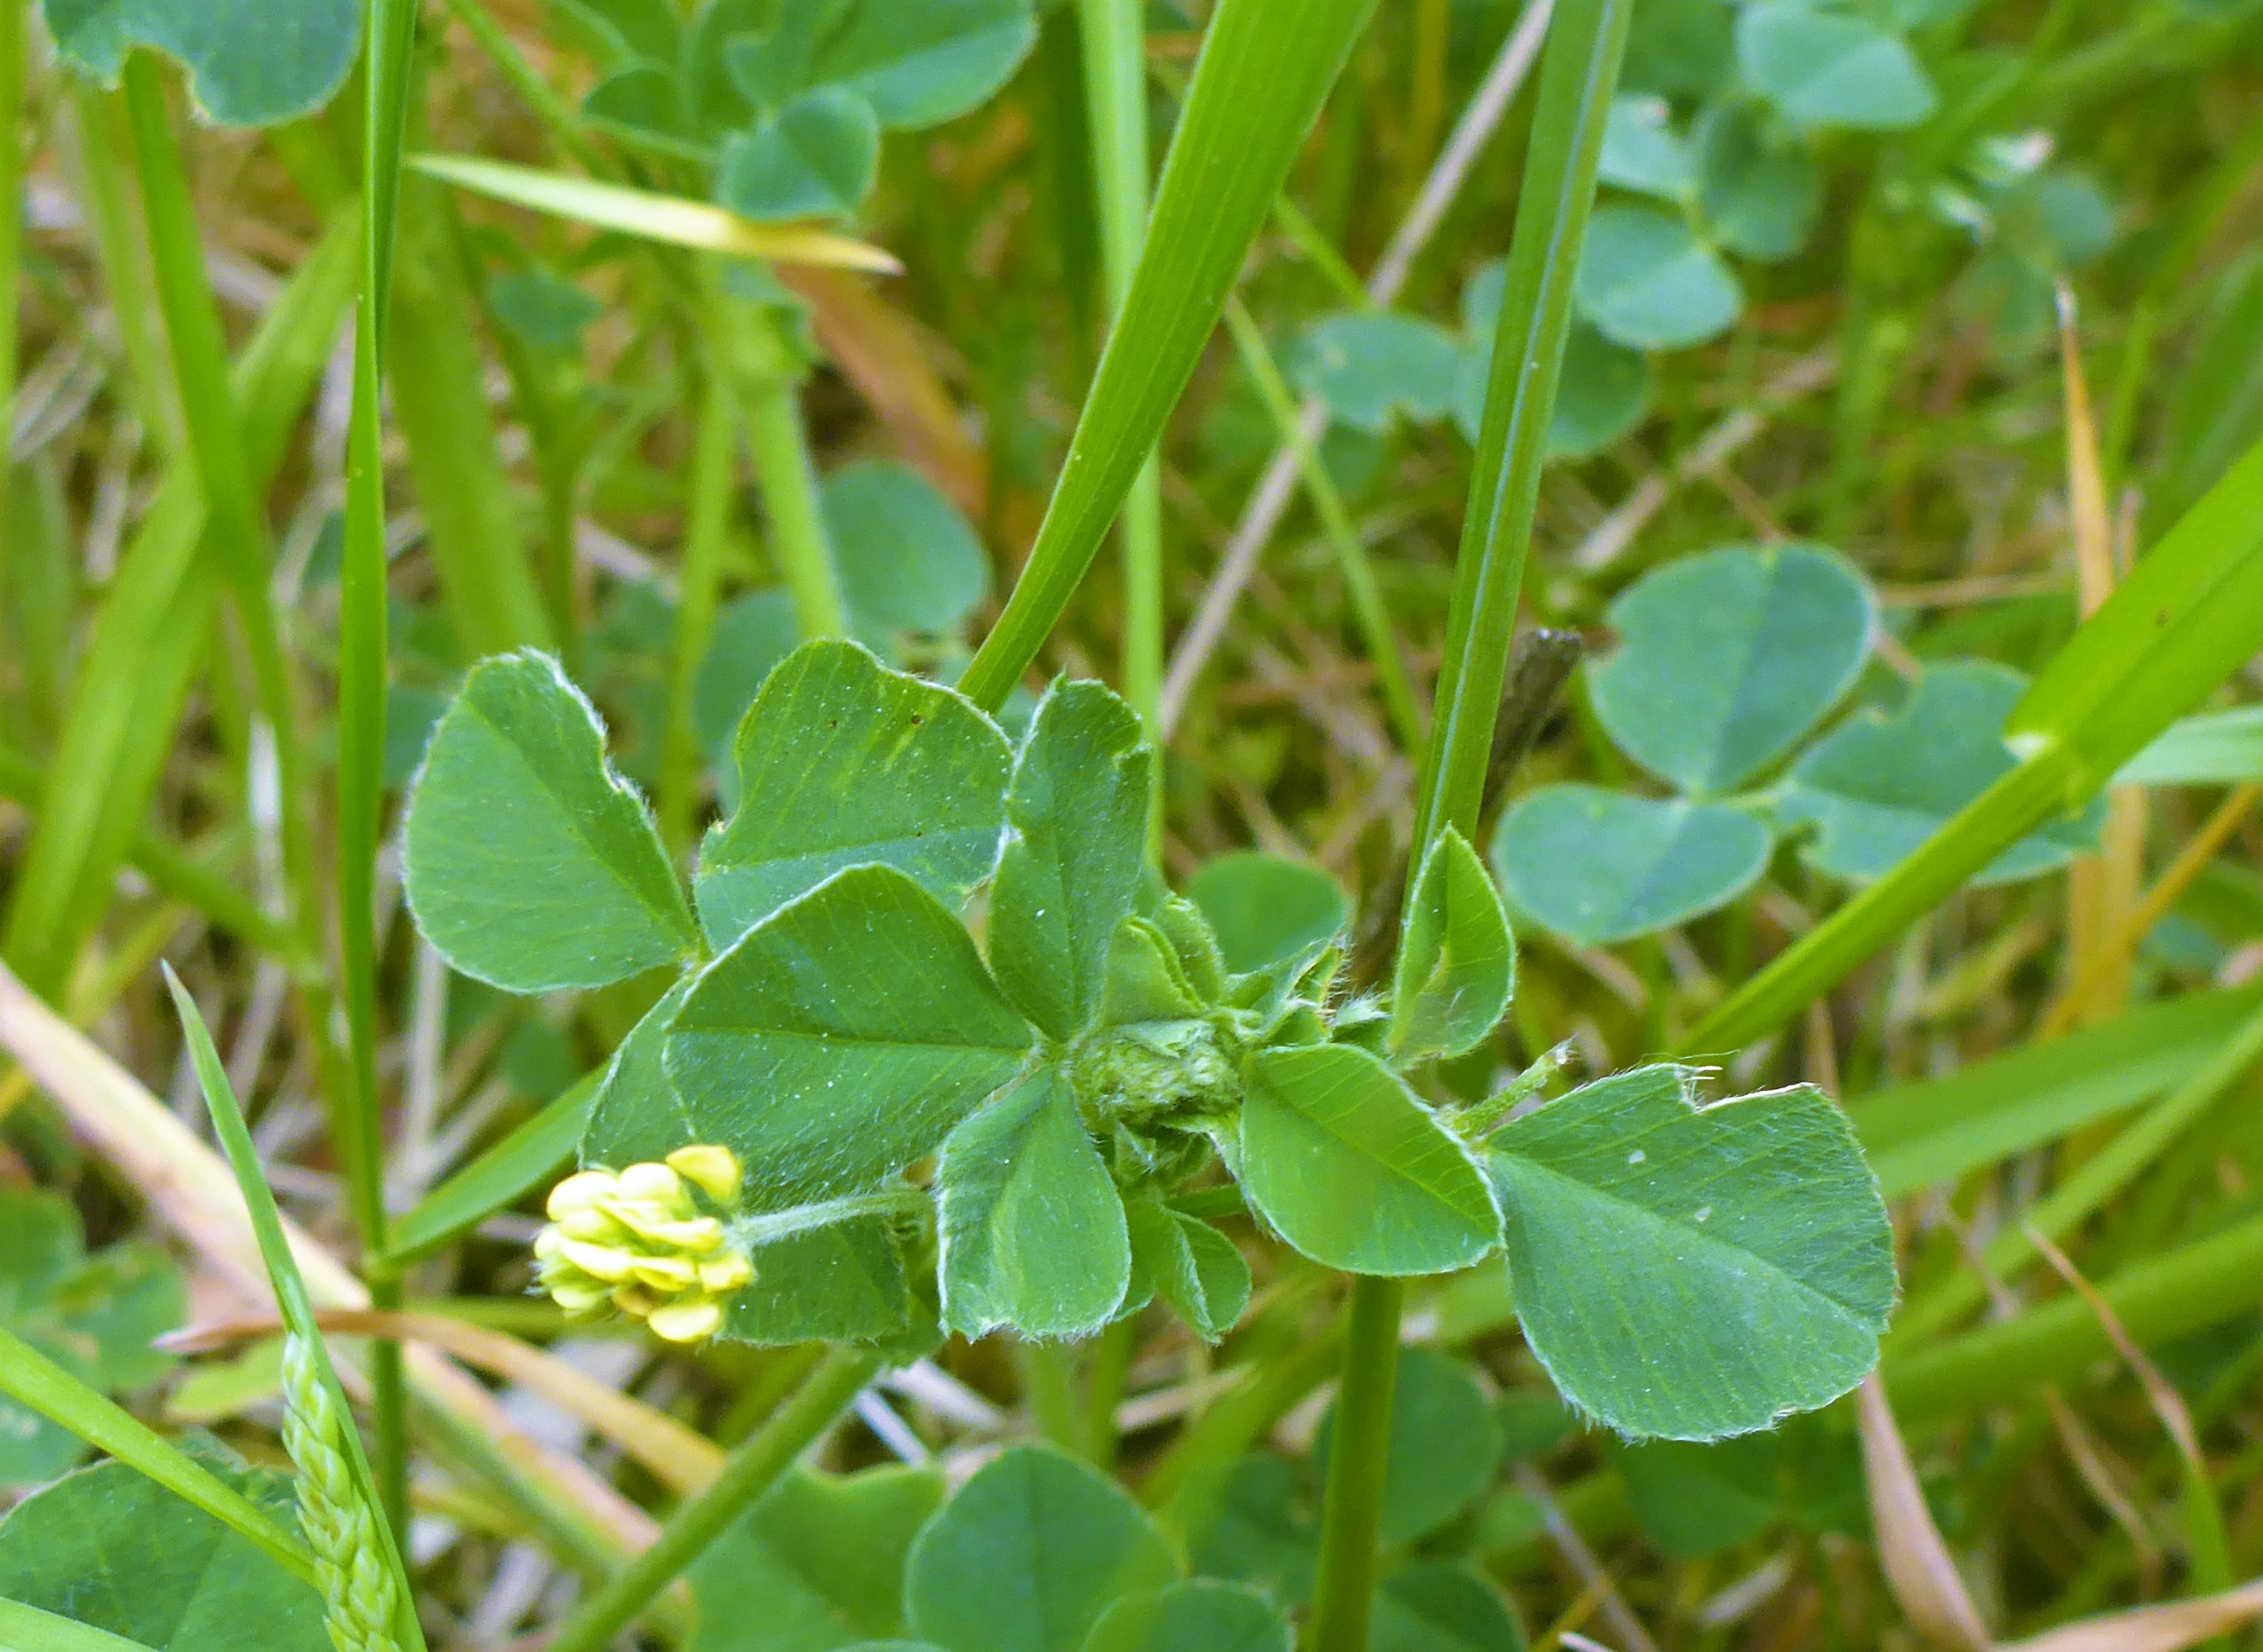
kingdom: Plantae
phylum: Tracheophyta
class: Magnoliopsida
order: Fabales
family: Fabaceae
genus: Medicago
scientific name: Medicago lupulina
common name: Humle-sneglebælg
